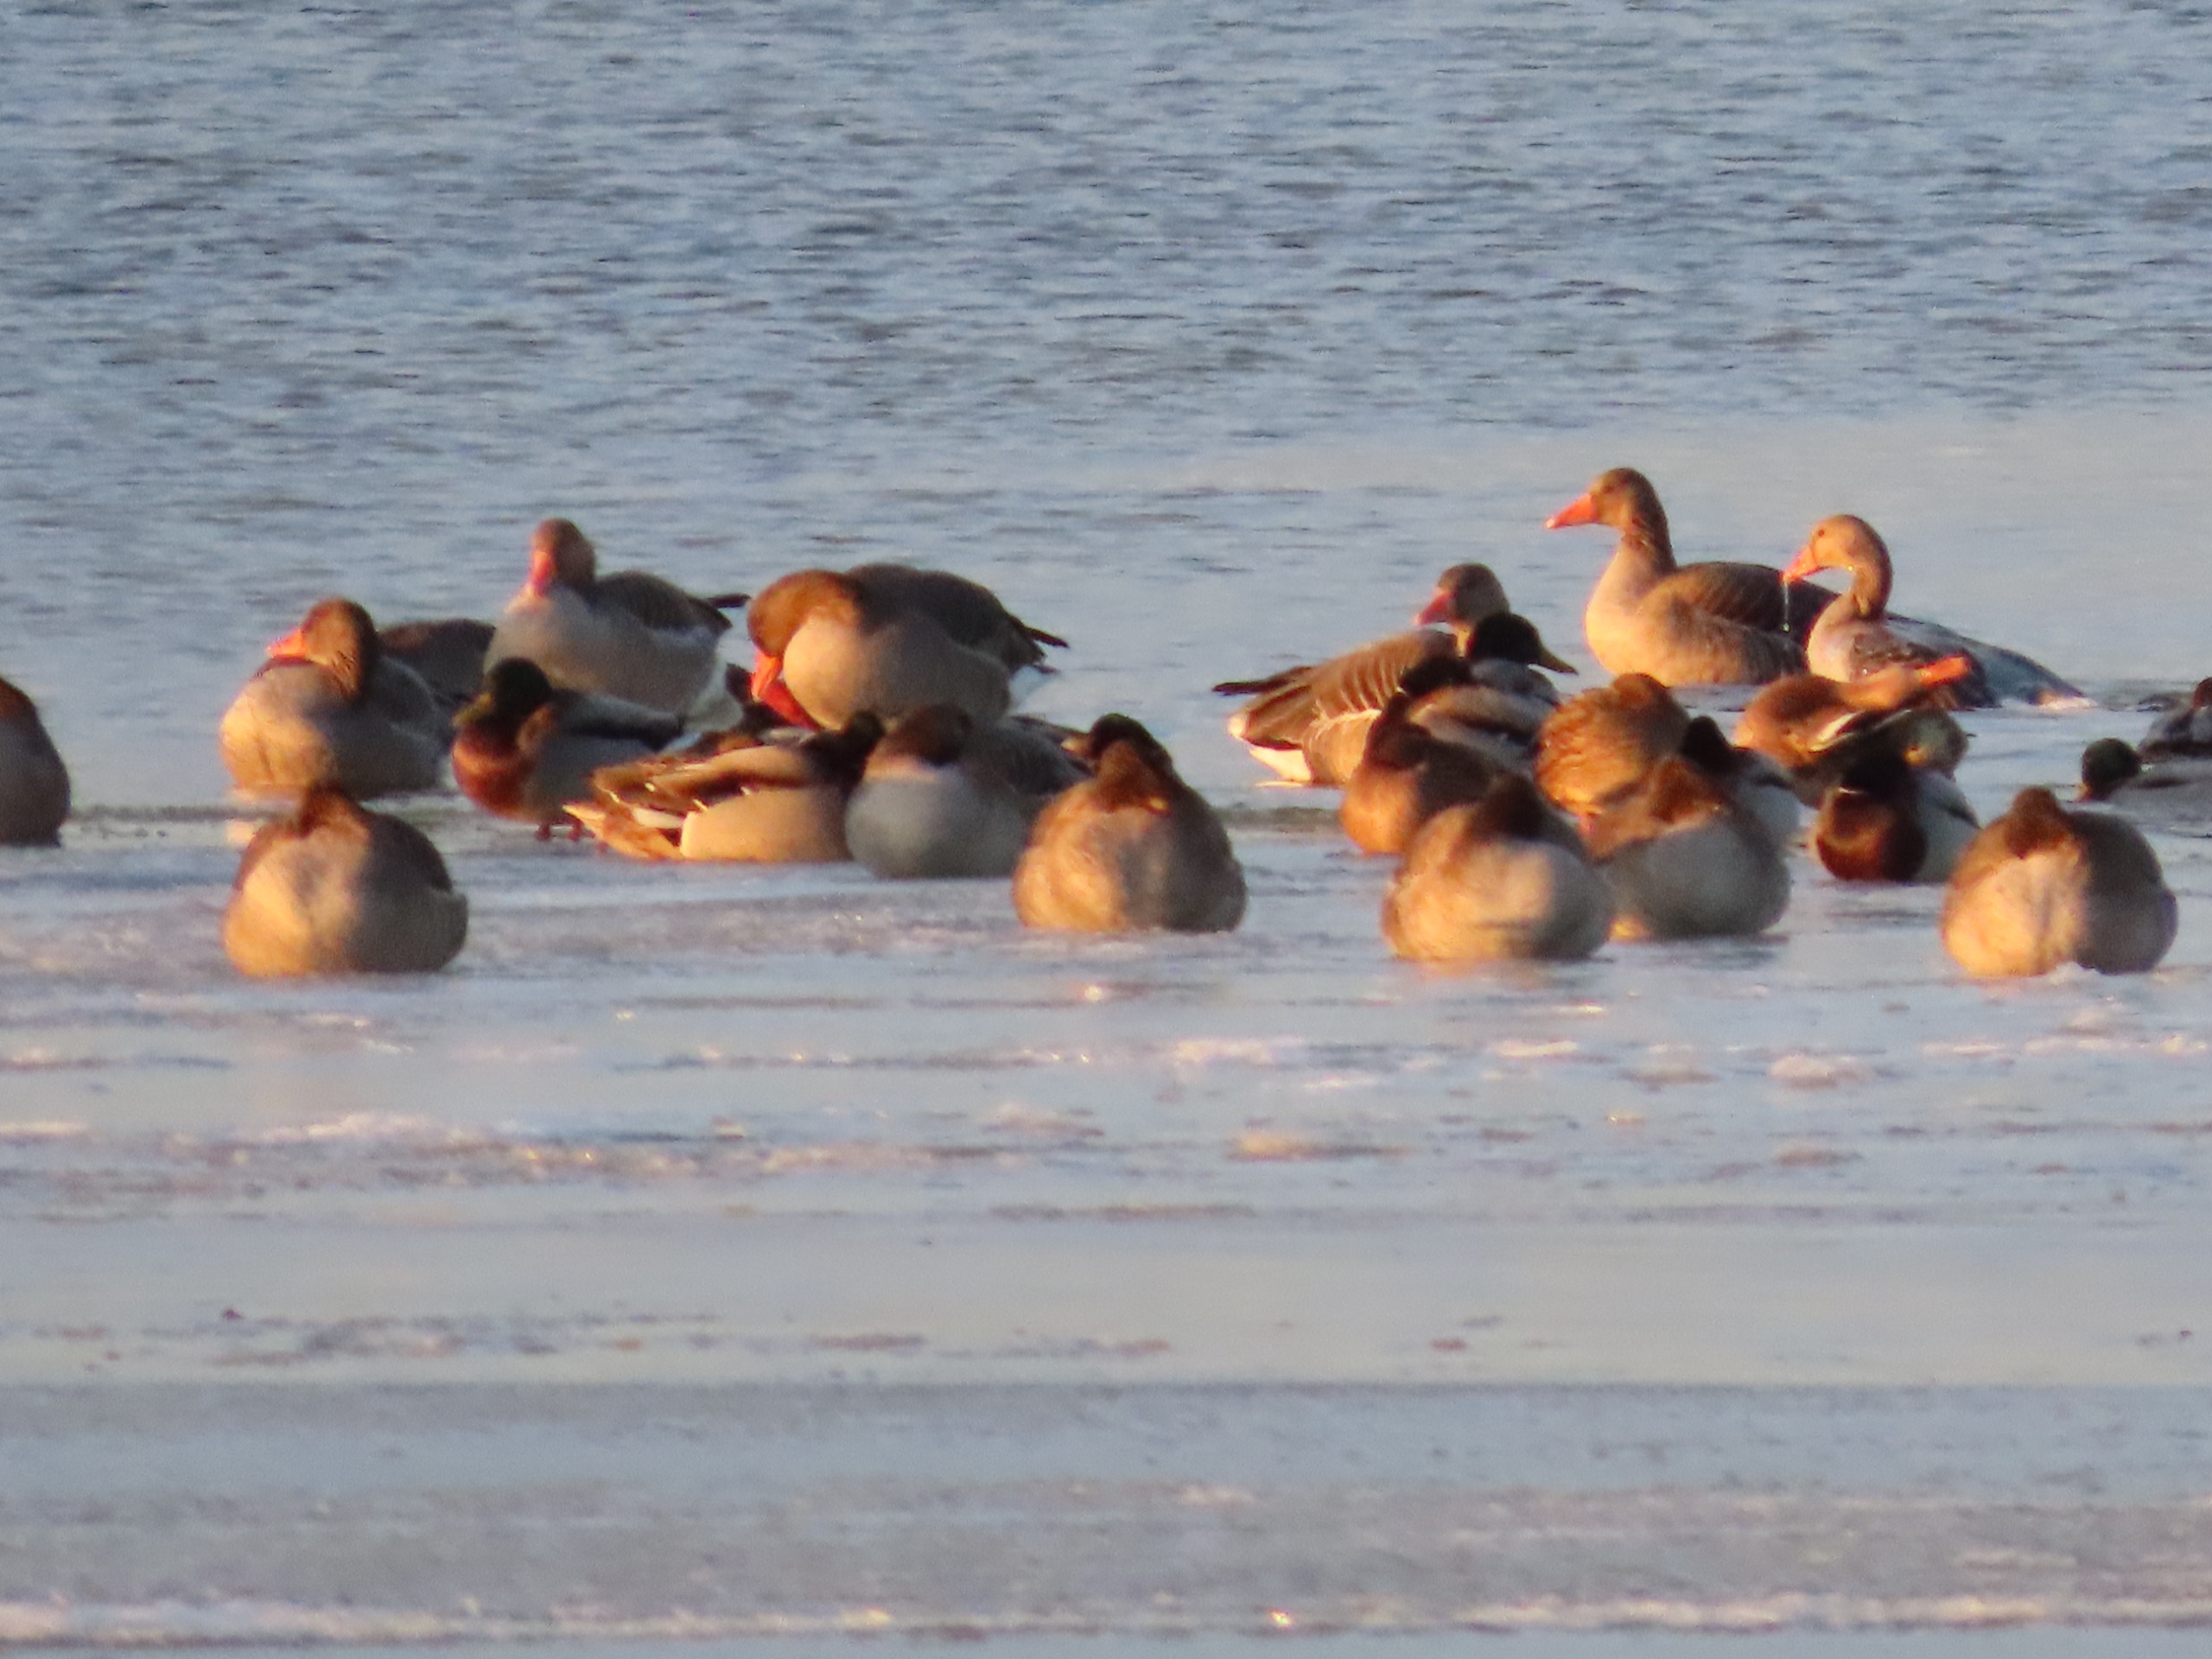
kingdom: Animalia
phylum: Chordata
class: Aves
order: Anseriformes
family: Anatidae
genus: Anser
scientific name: Anser anser
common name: Grågås
